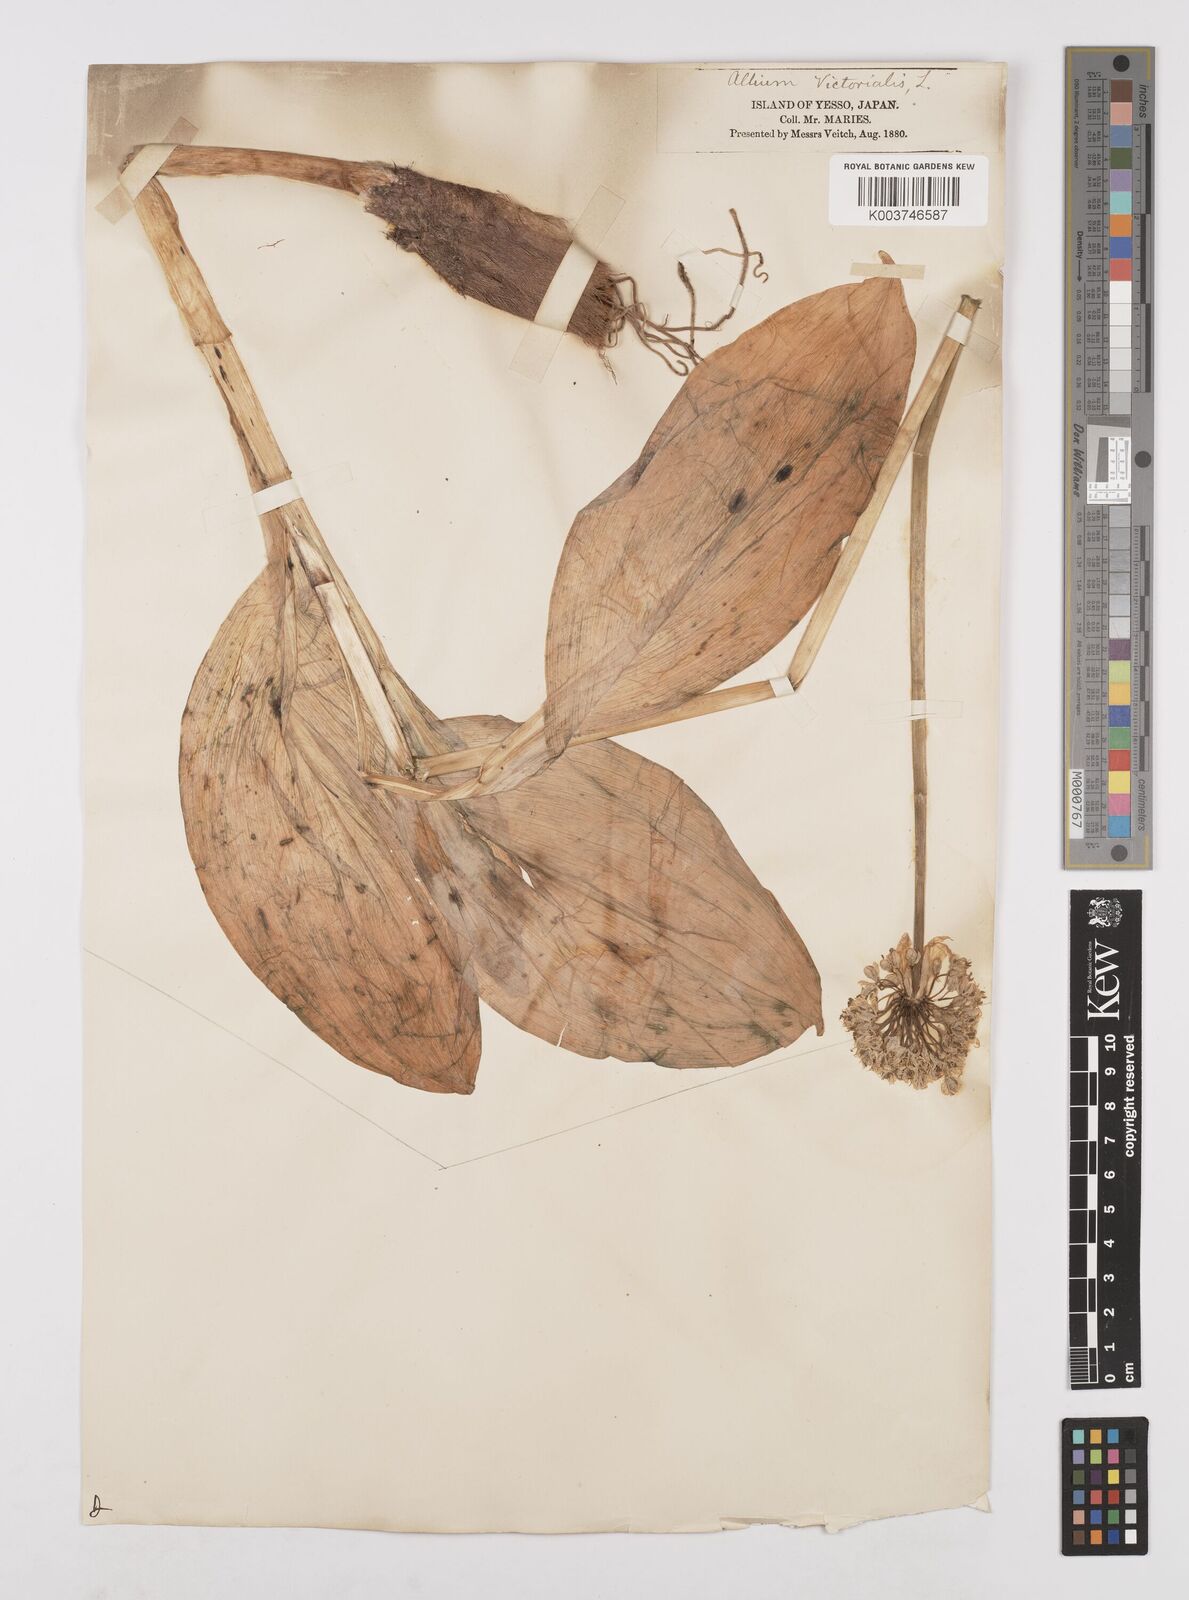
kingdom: Plantae
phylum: Tracheophyta
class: Liliopsida
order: Asparagales
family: Amaryllidaceae
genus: Allium
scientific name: Allium victorialis
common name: Alpine leek
